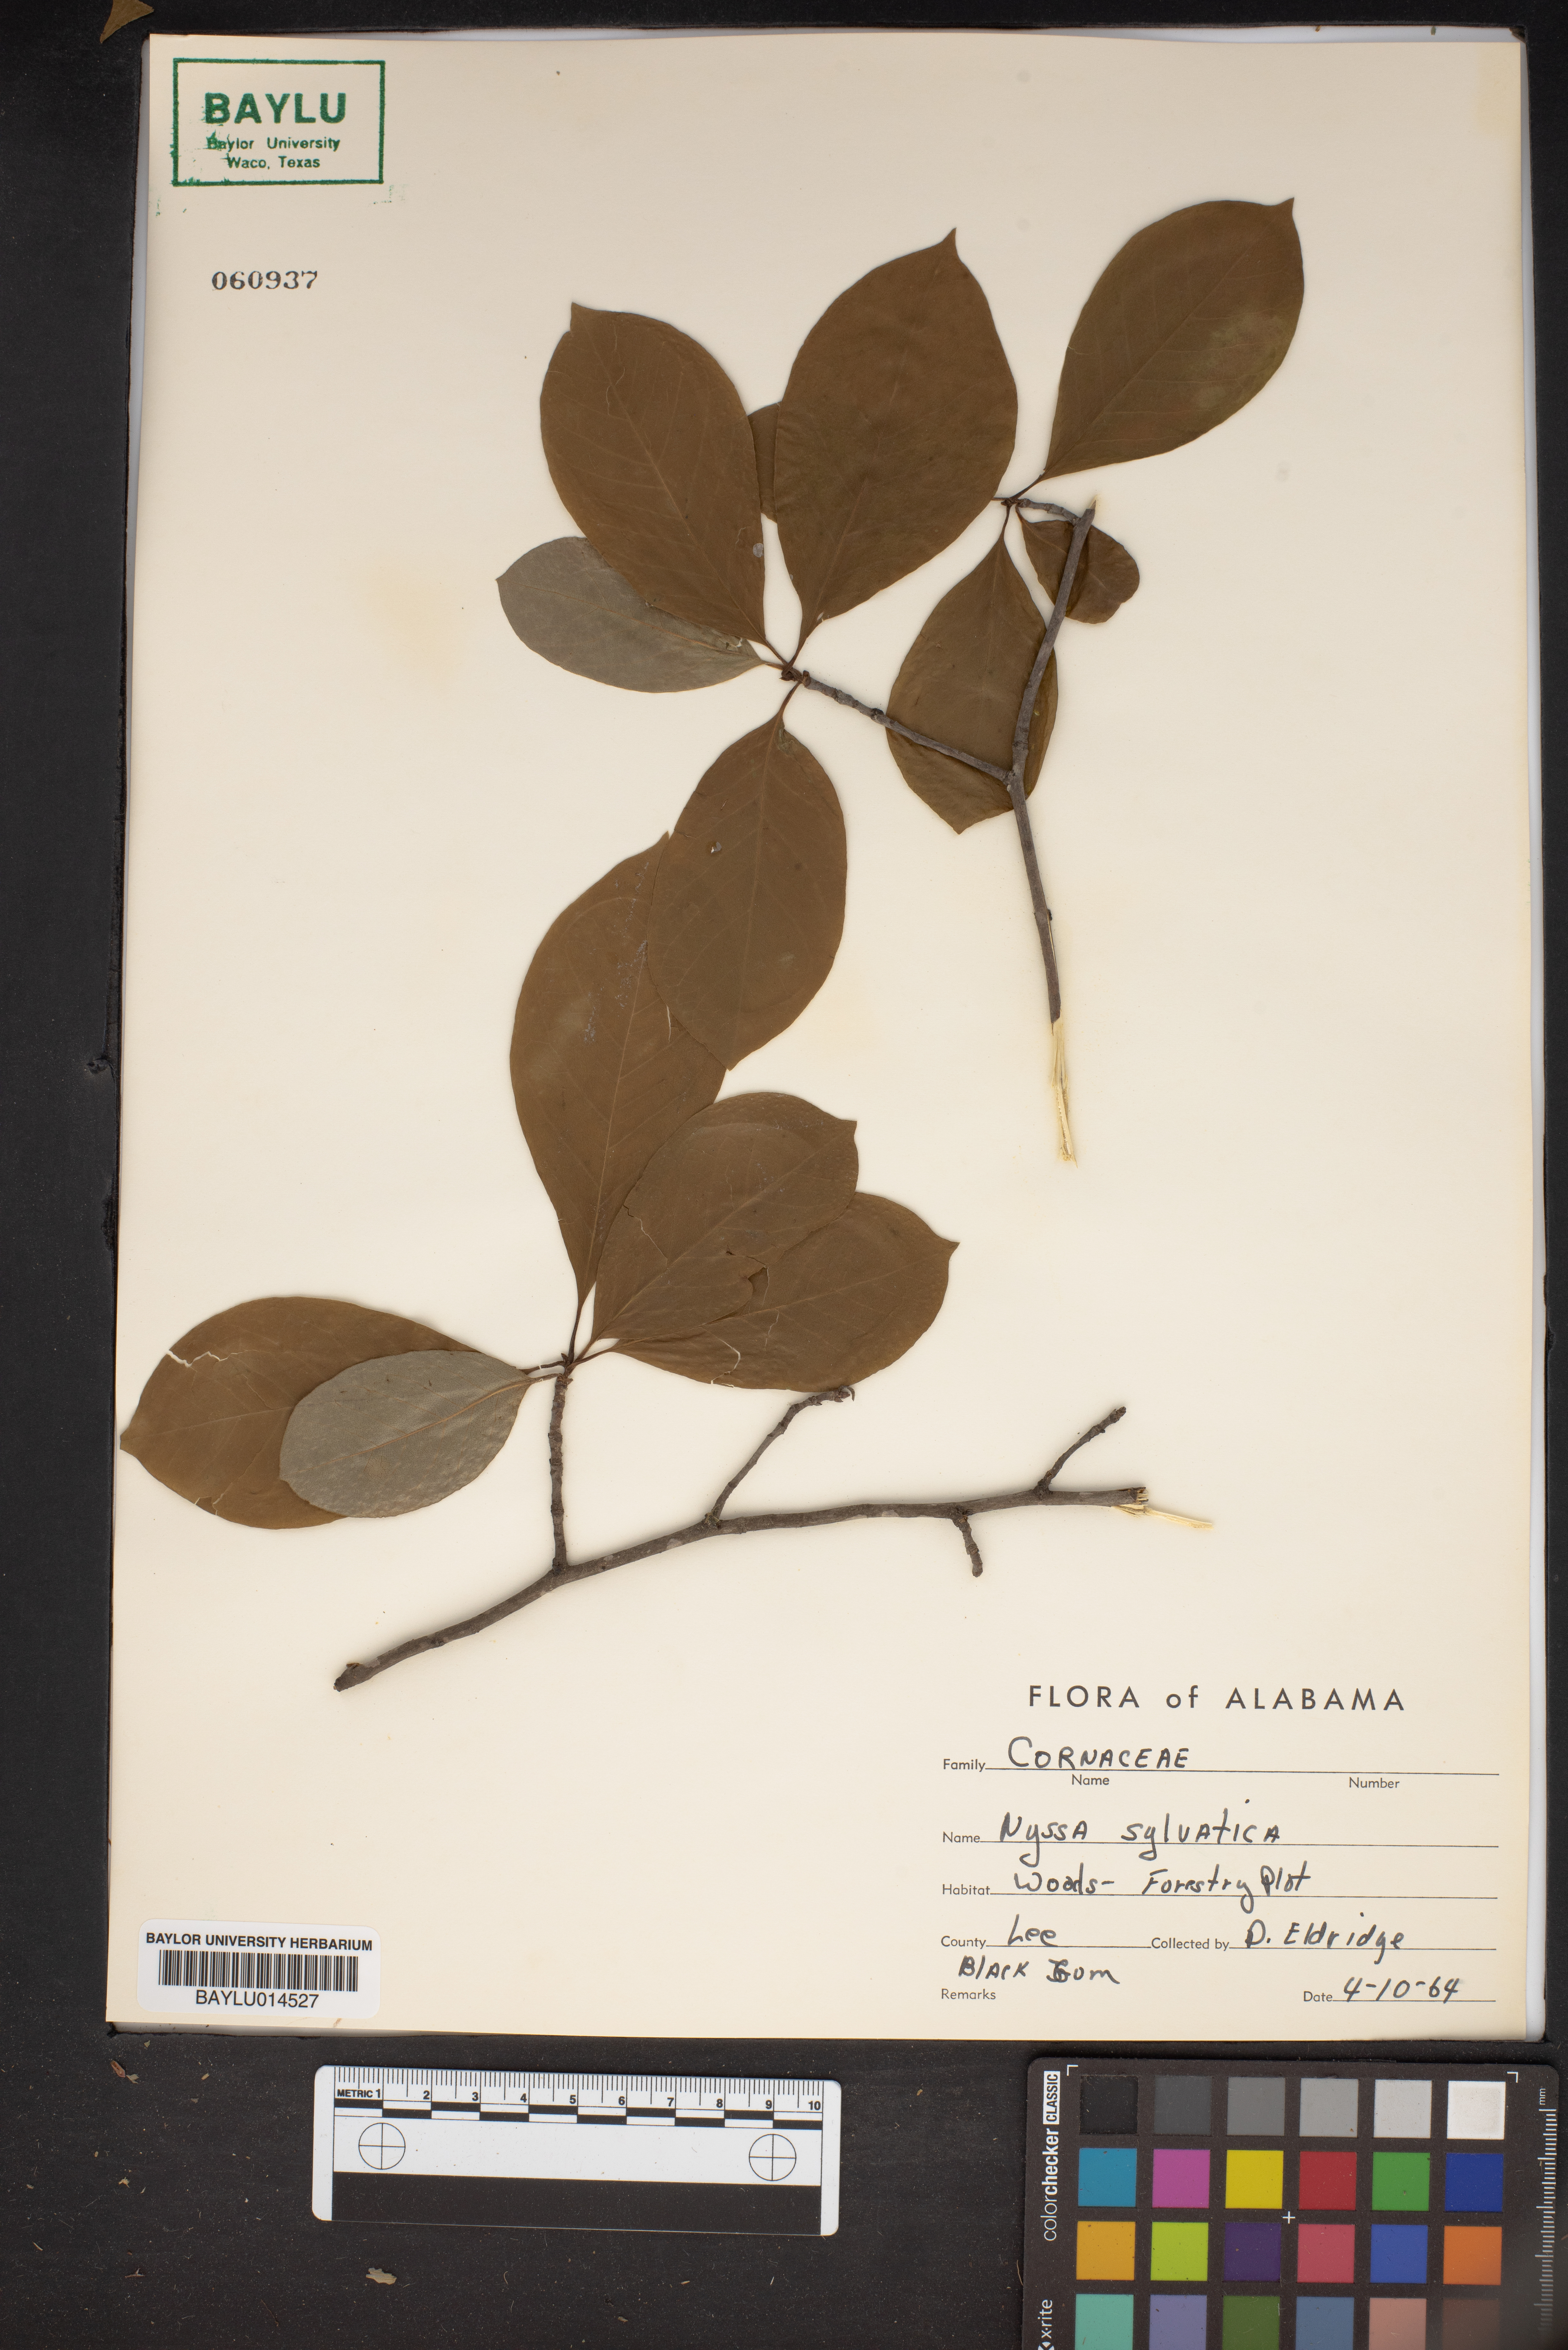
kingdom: Plantae
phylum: Tracheophyta
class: Magnoliopsida
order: Cornales
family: Nyssaceae
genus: Nyssa
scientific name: Nyssa sylvatica
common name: Black tupelo
